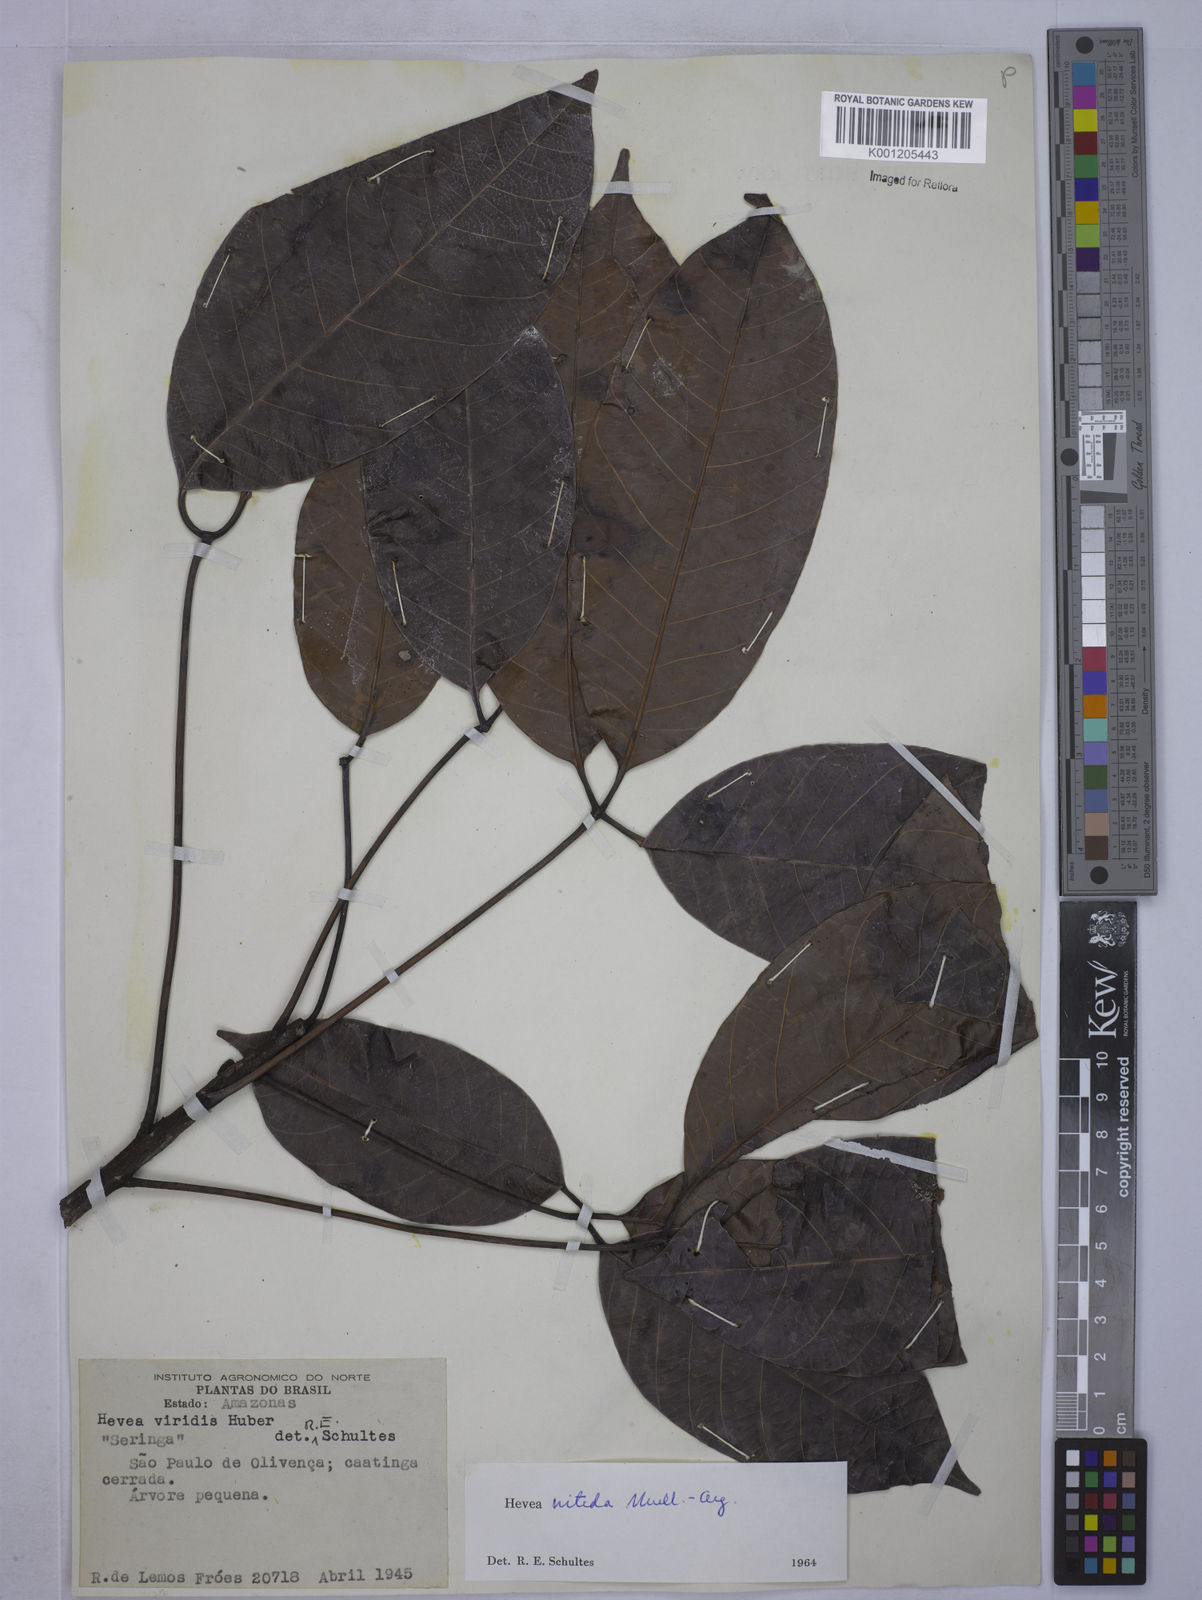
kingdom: Plantae
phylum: Tracheophyta
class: Magnoliopsida
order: Malpighiales
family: Euphorbiaceae
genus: Hevea
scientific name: Hevea
